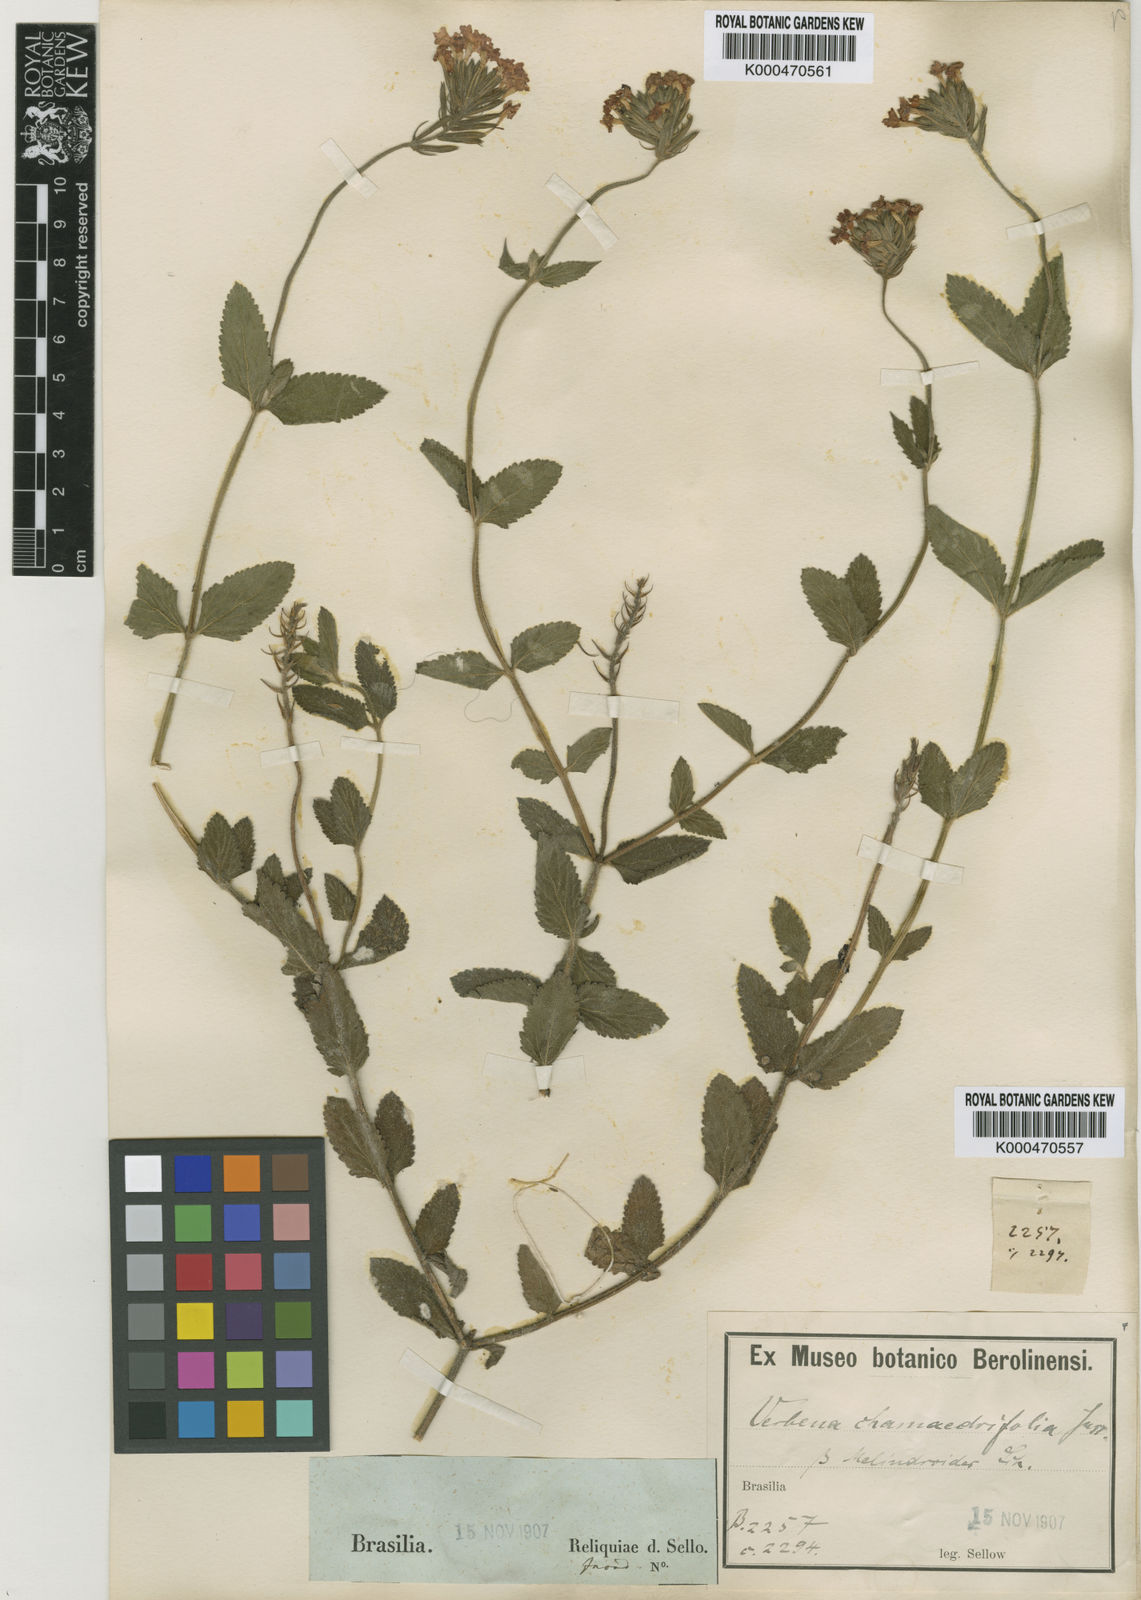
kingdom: Plantae
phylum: Tracheophyta
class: Magnoliopsida
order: Lamiales
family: Verbenaceae
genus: Verbena
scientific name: Verbena paulensis
